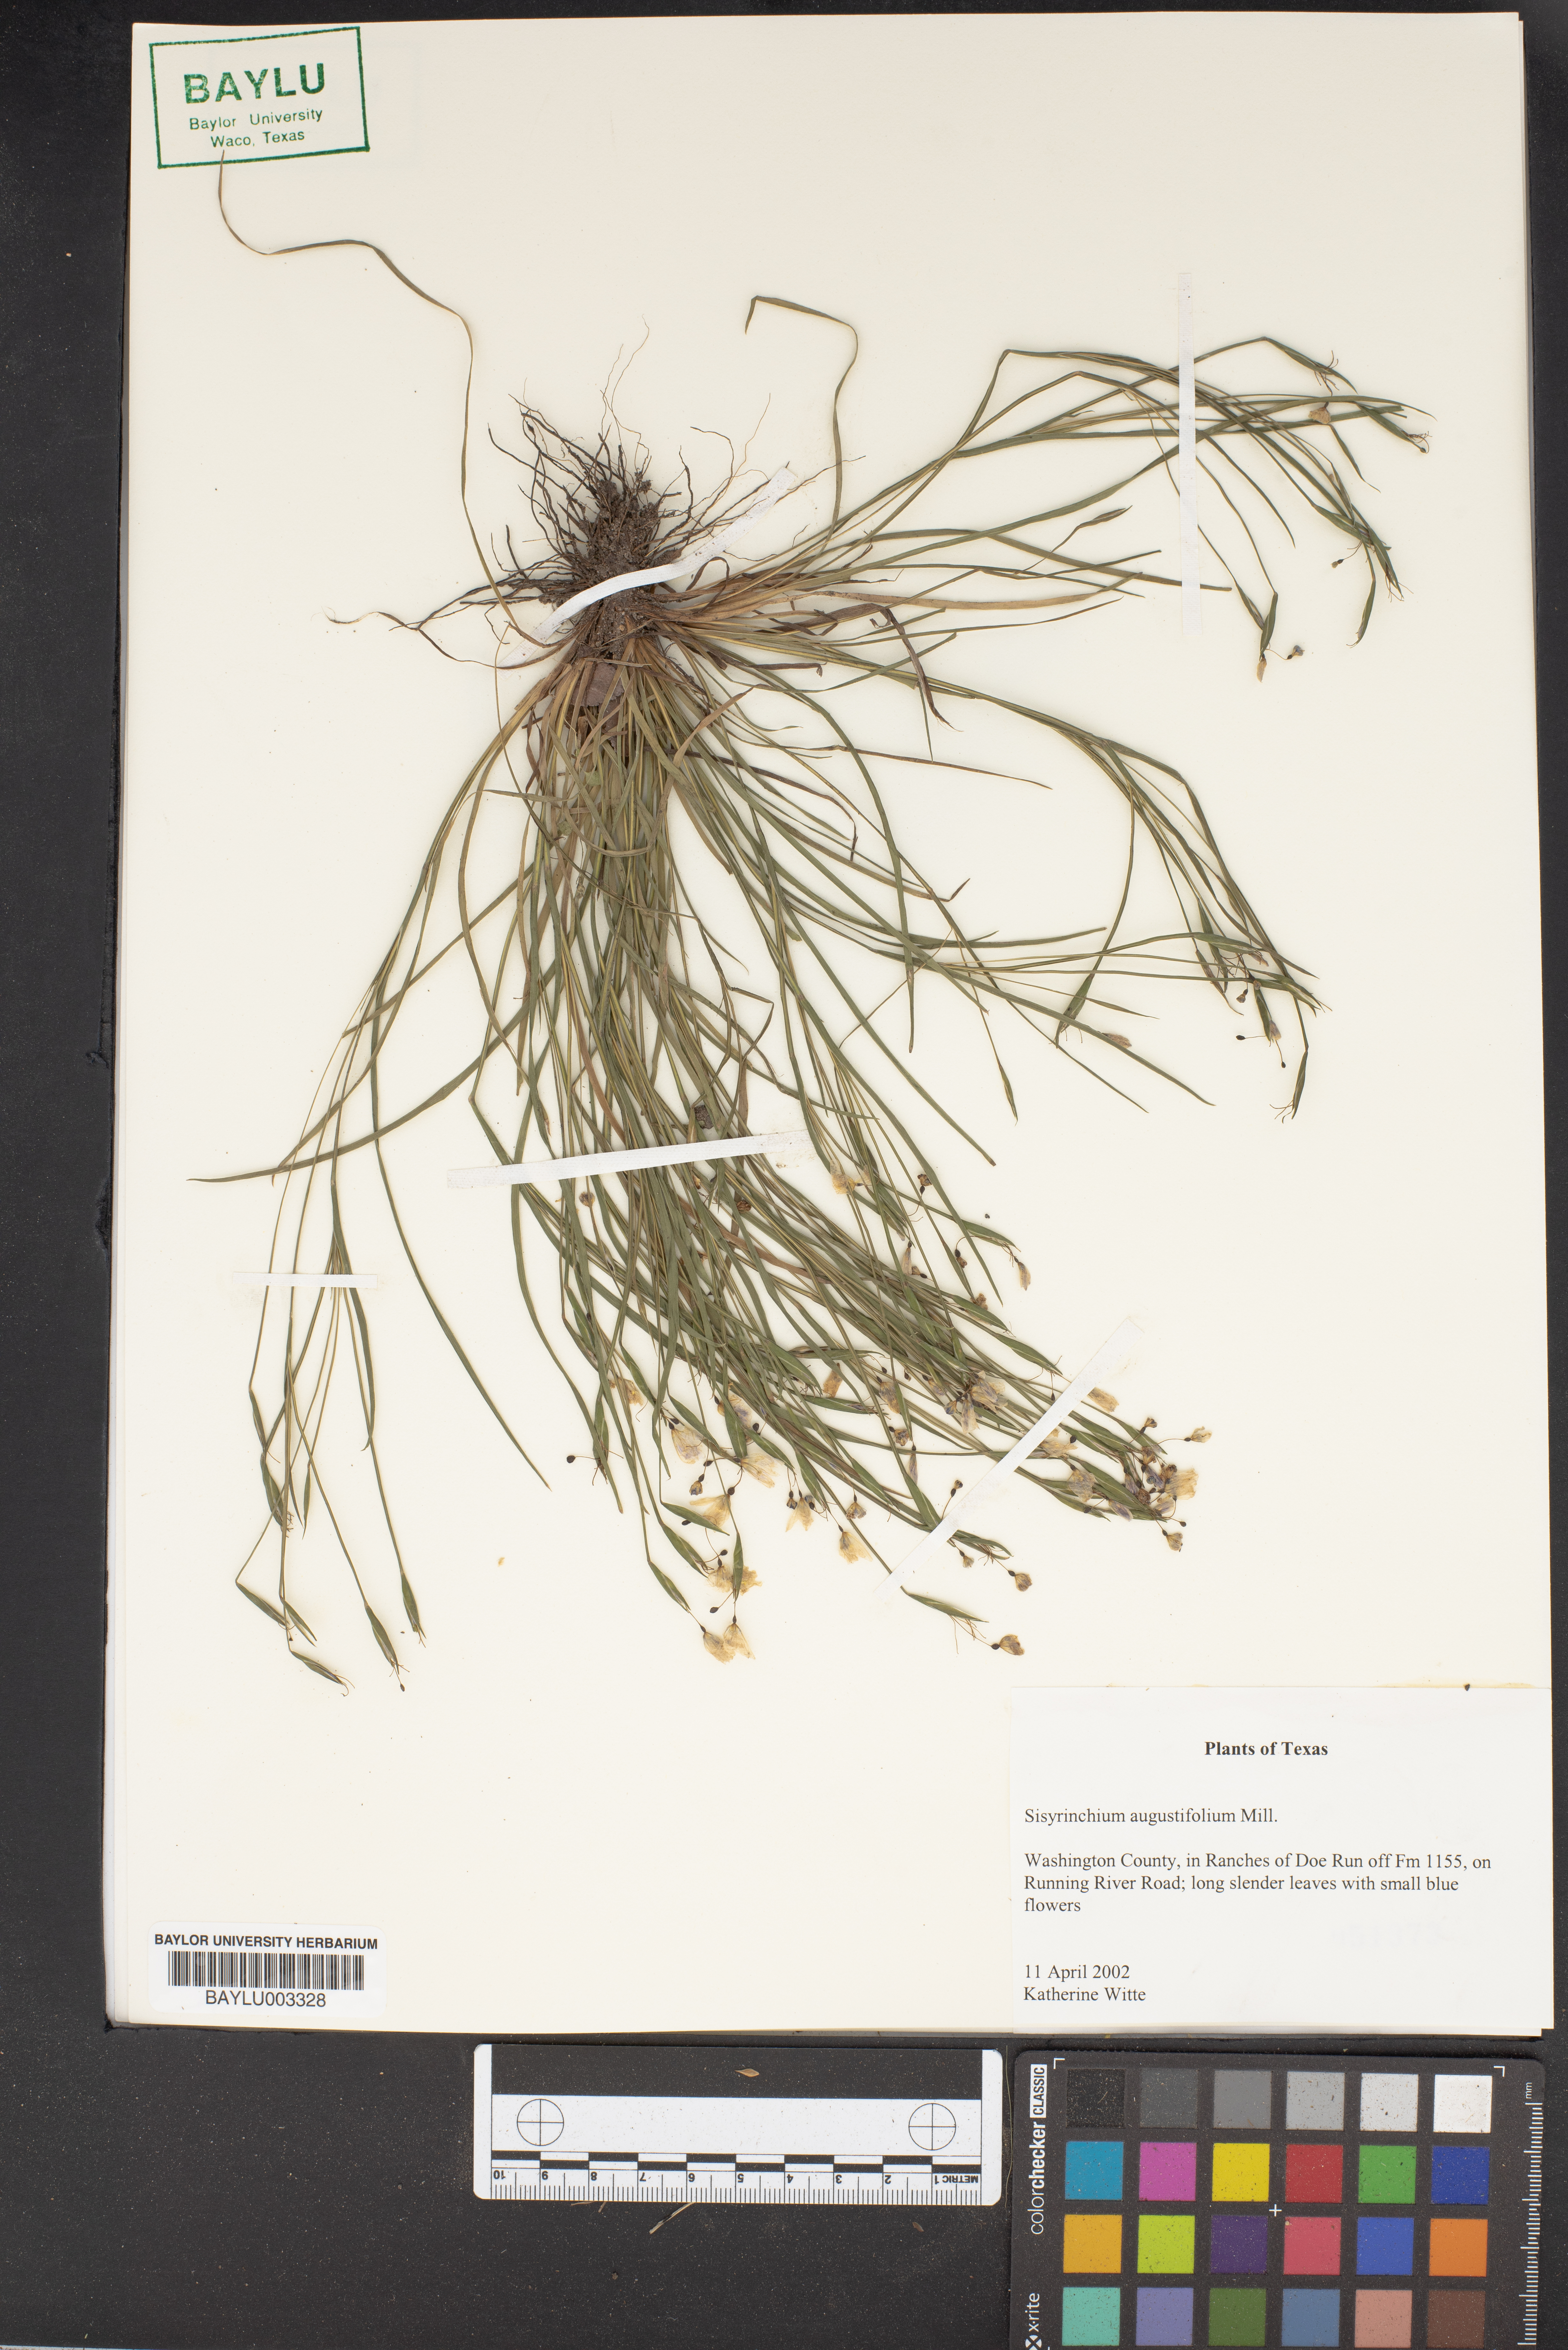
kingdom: Plantae
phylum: Tracheophyta
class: Liliopsida
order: Asparagales
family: Iridaceae
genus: Sisyrinchium
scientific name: Sisyrinchium angustifolium
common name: Narrow-leaf blue-eyed-grass
